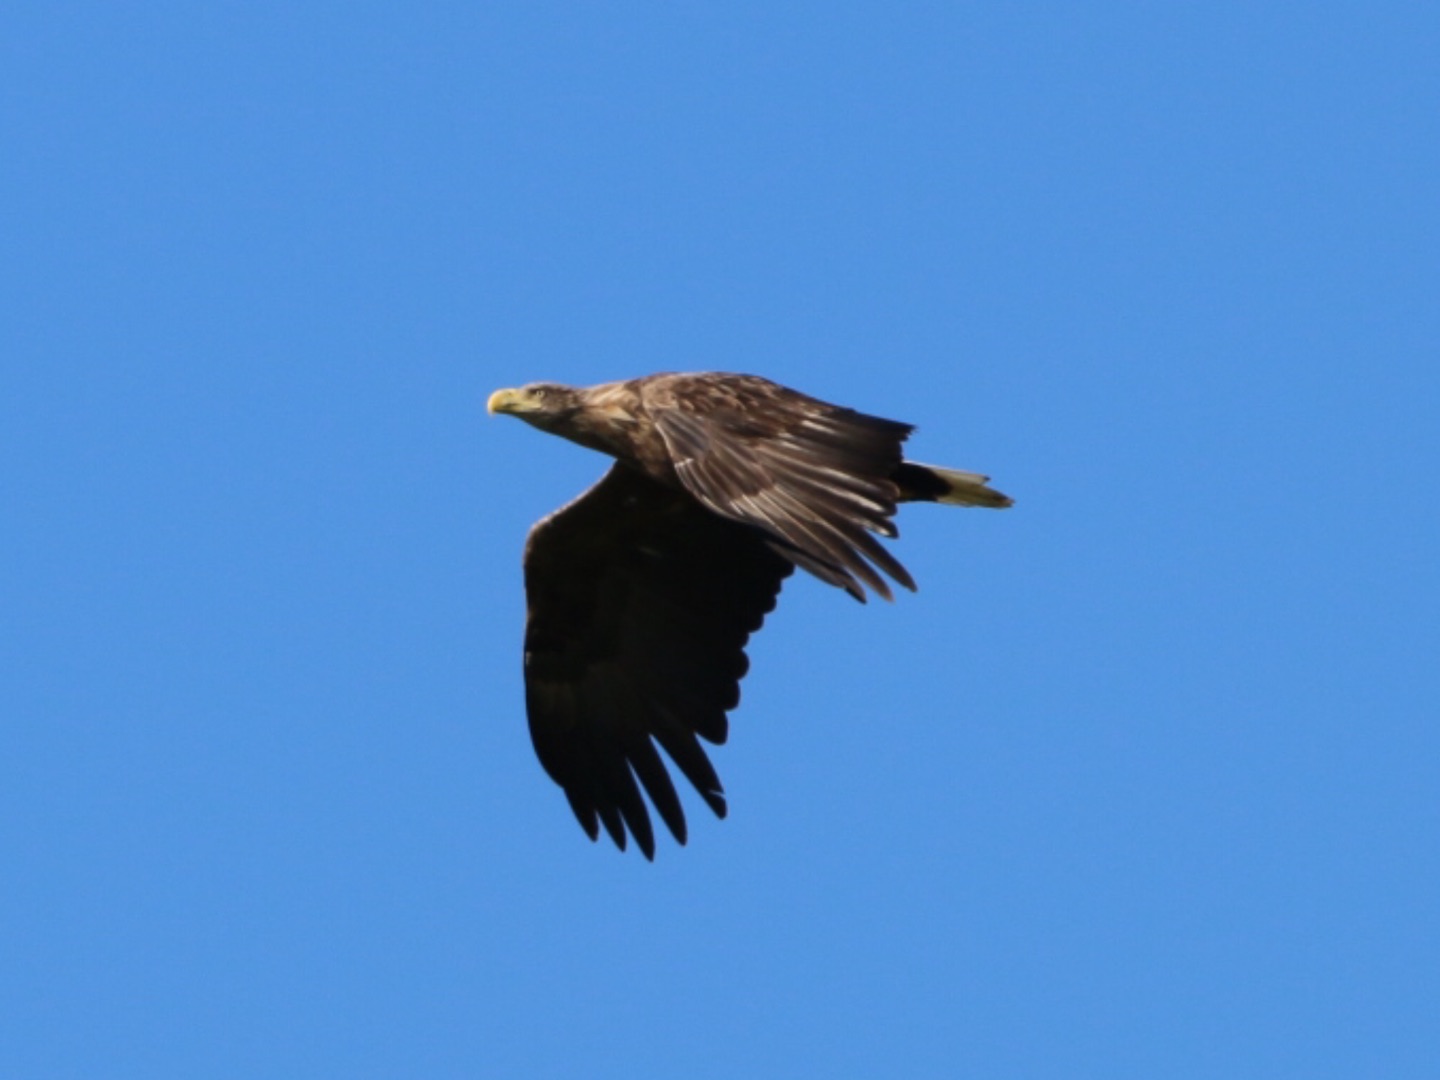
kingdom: Animalia
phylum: Chordata
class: Aves
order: Accipitriformes
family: Accipitridae
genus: Haliaeetus
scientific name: Haliaeetus albicilla
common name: Havørn
